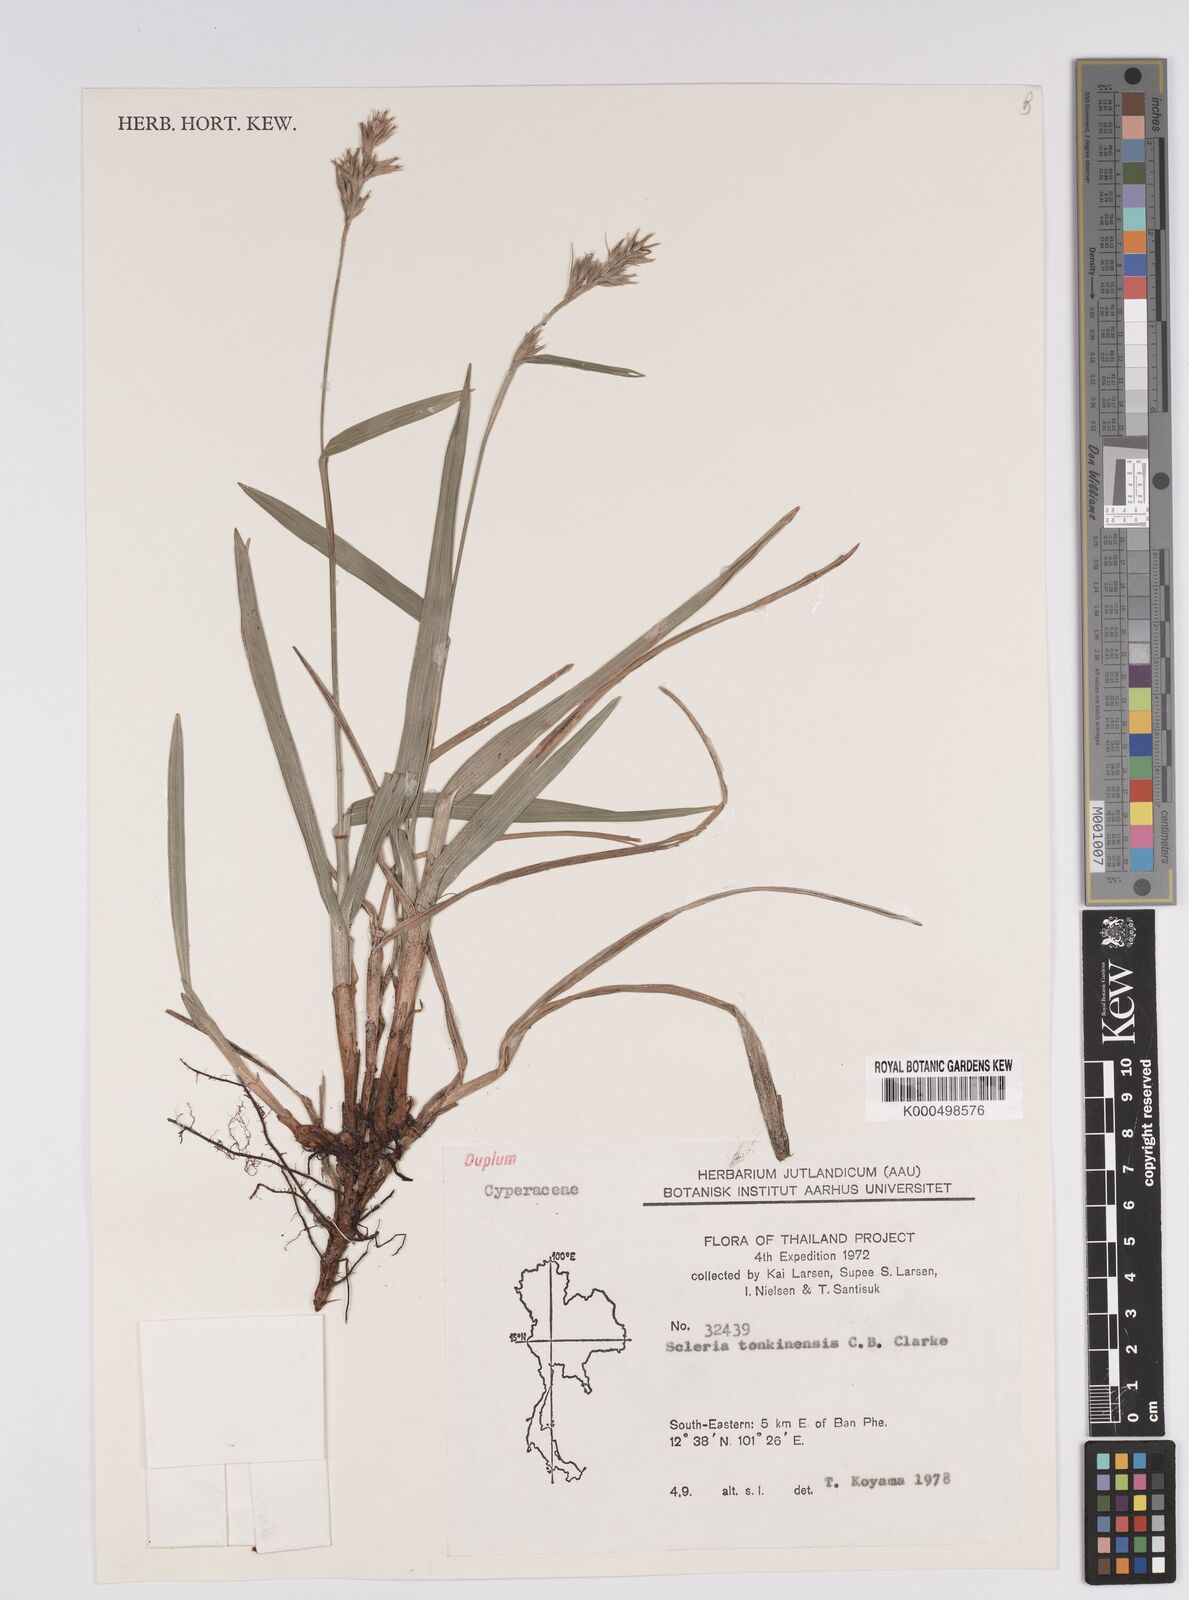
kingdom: Plantae
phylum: Tracheophyta
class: Liliopsida
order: Poales
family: Cyperaceae
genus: Scleria
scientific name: Scleria tonkinensis
